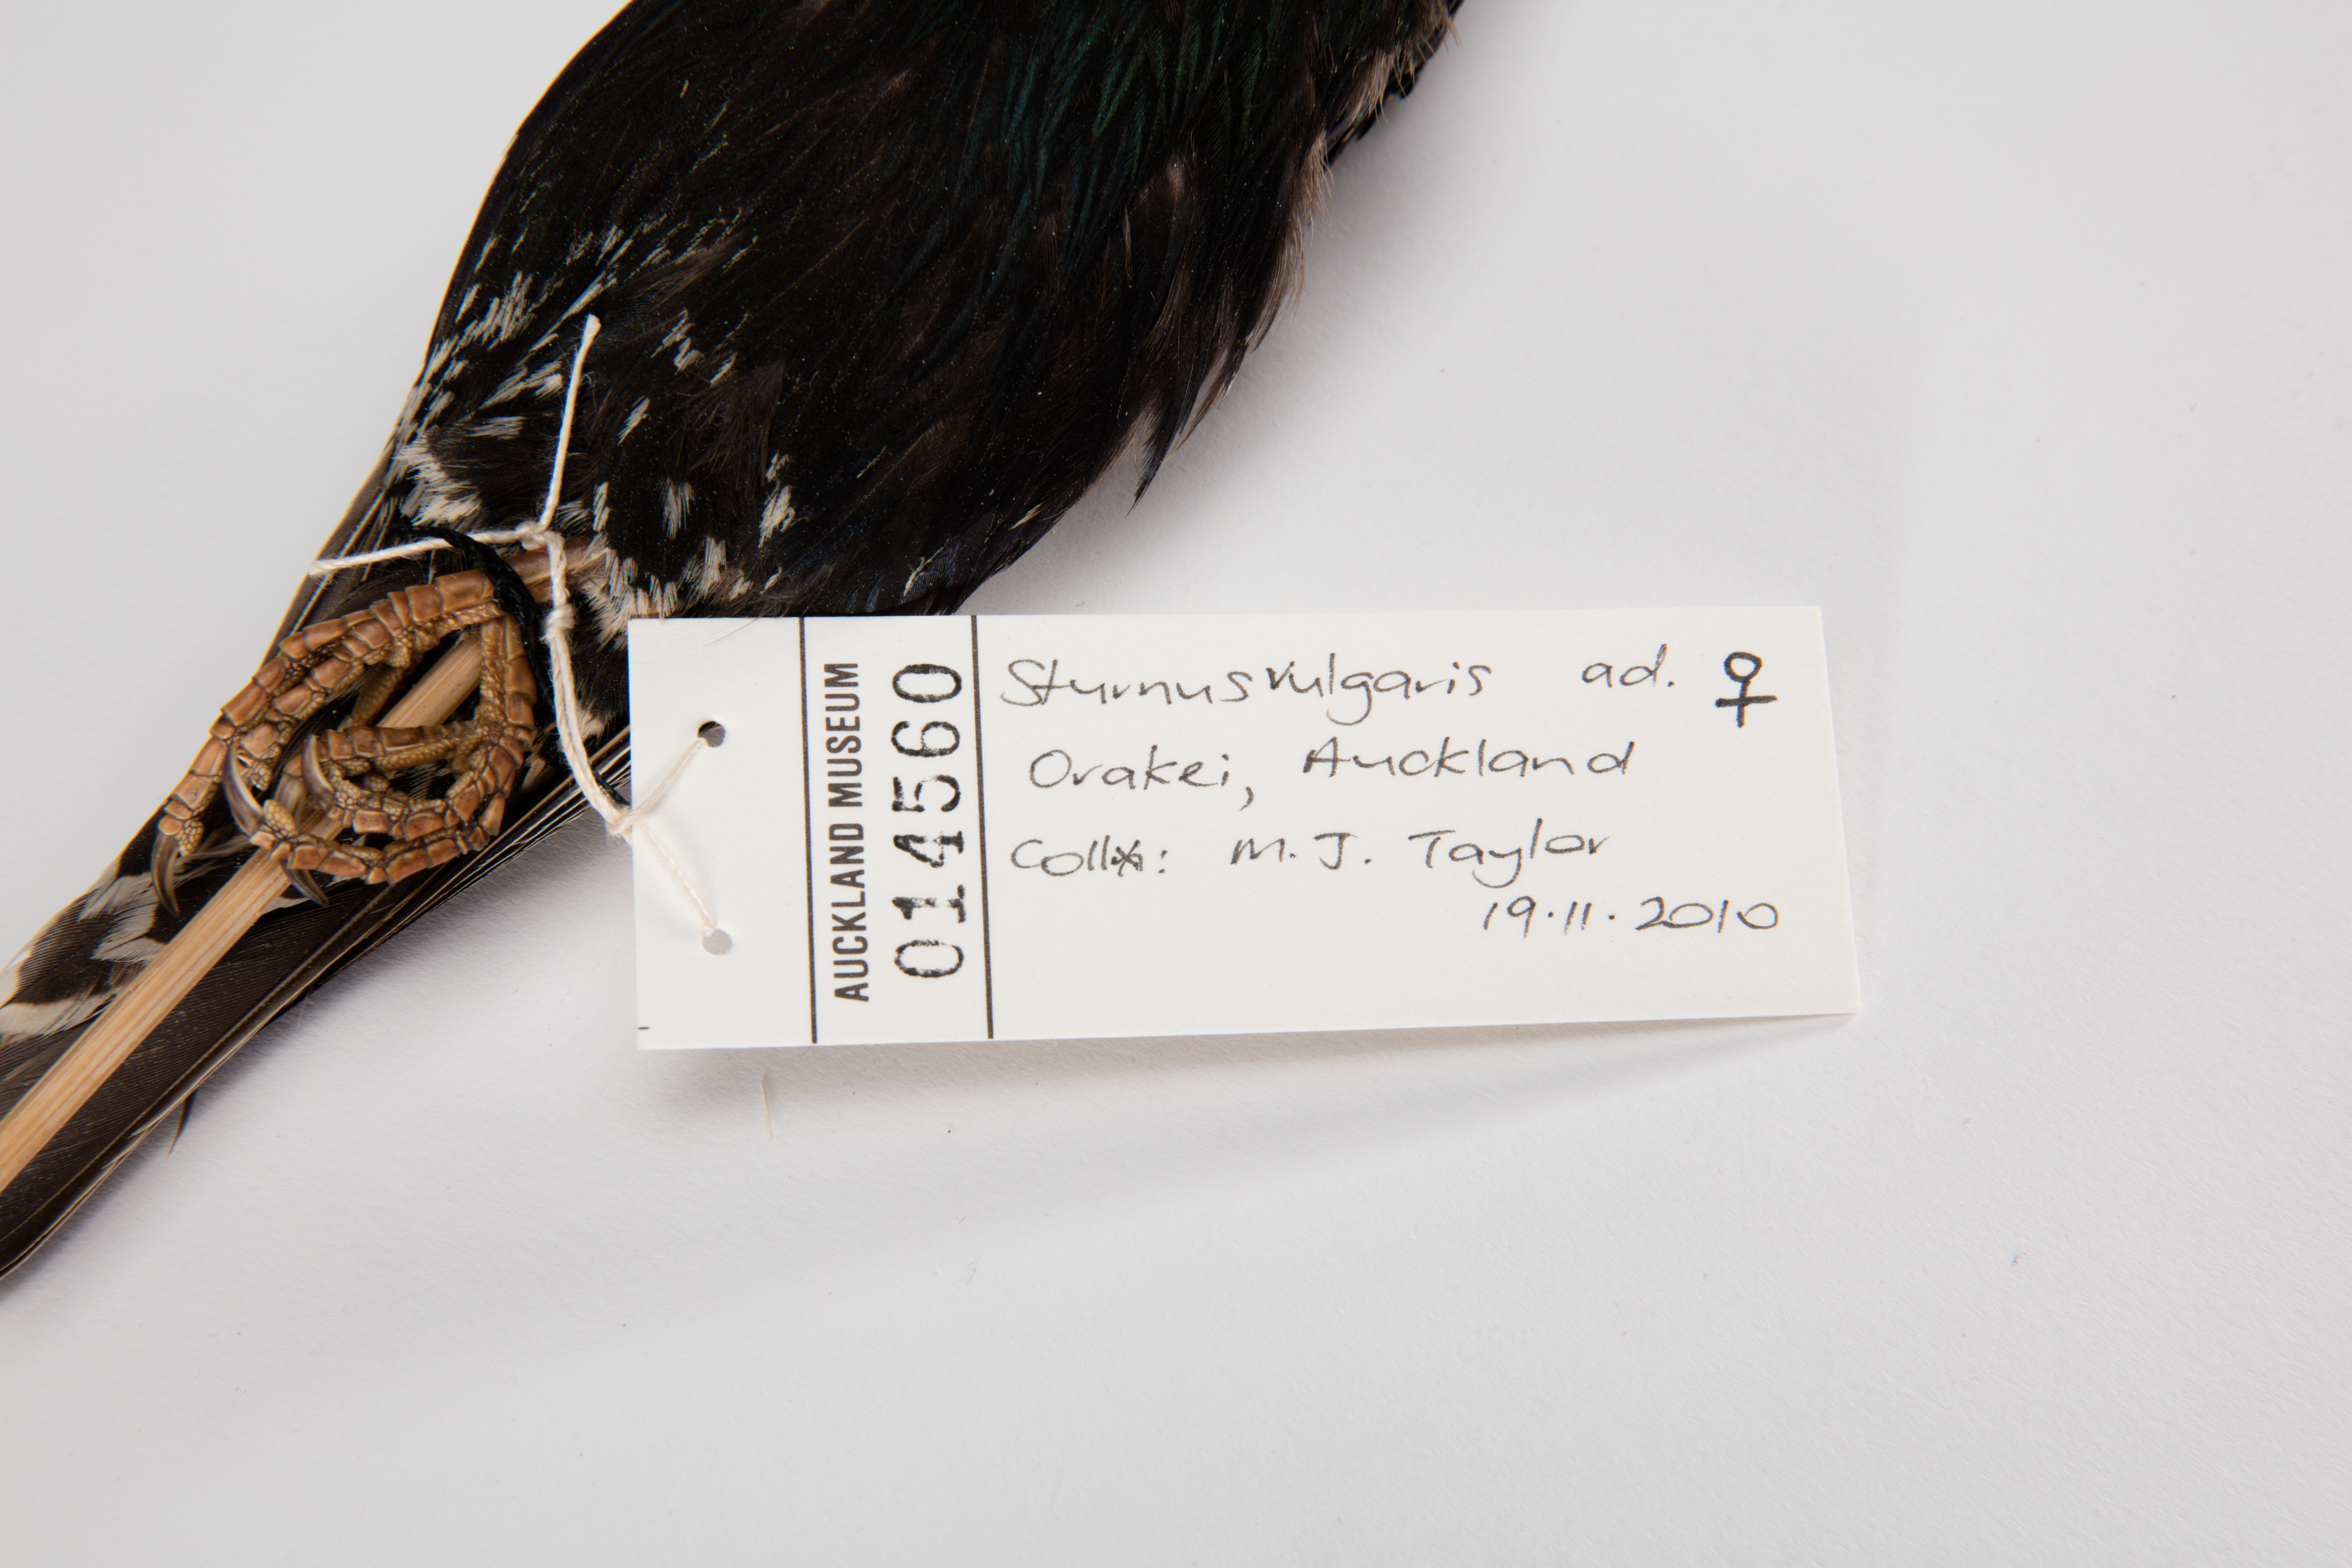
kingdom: Animalia
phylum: Chordata
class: Aves
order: Passeriformes
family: Sturnidae
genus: Sturnus
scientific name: Sturnus vulgaris
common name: Common starling
